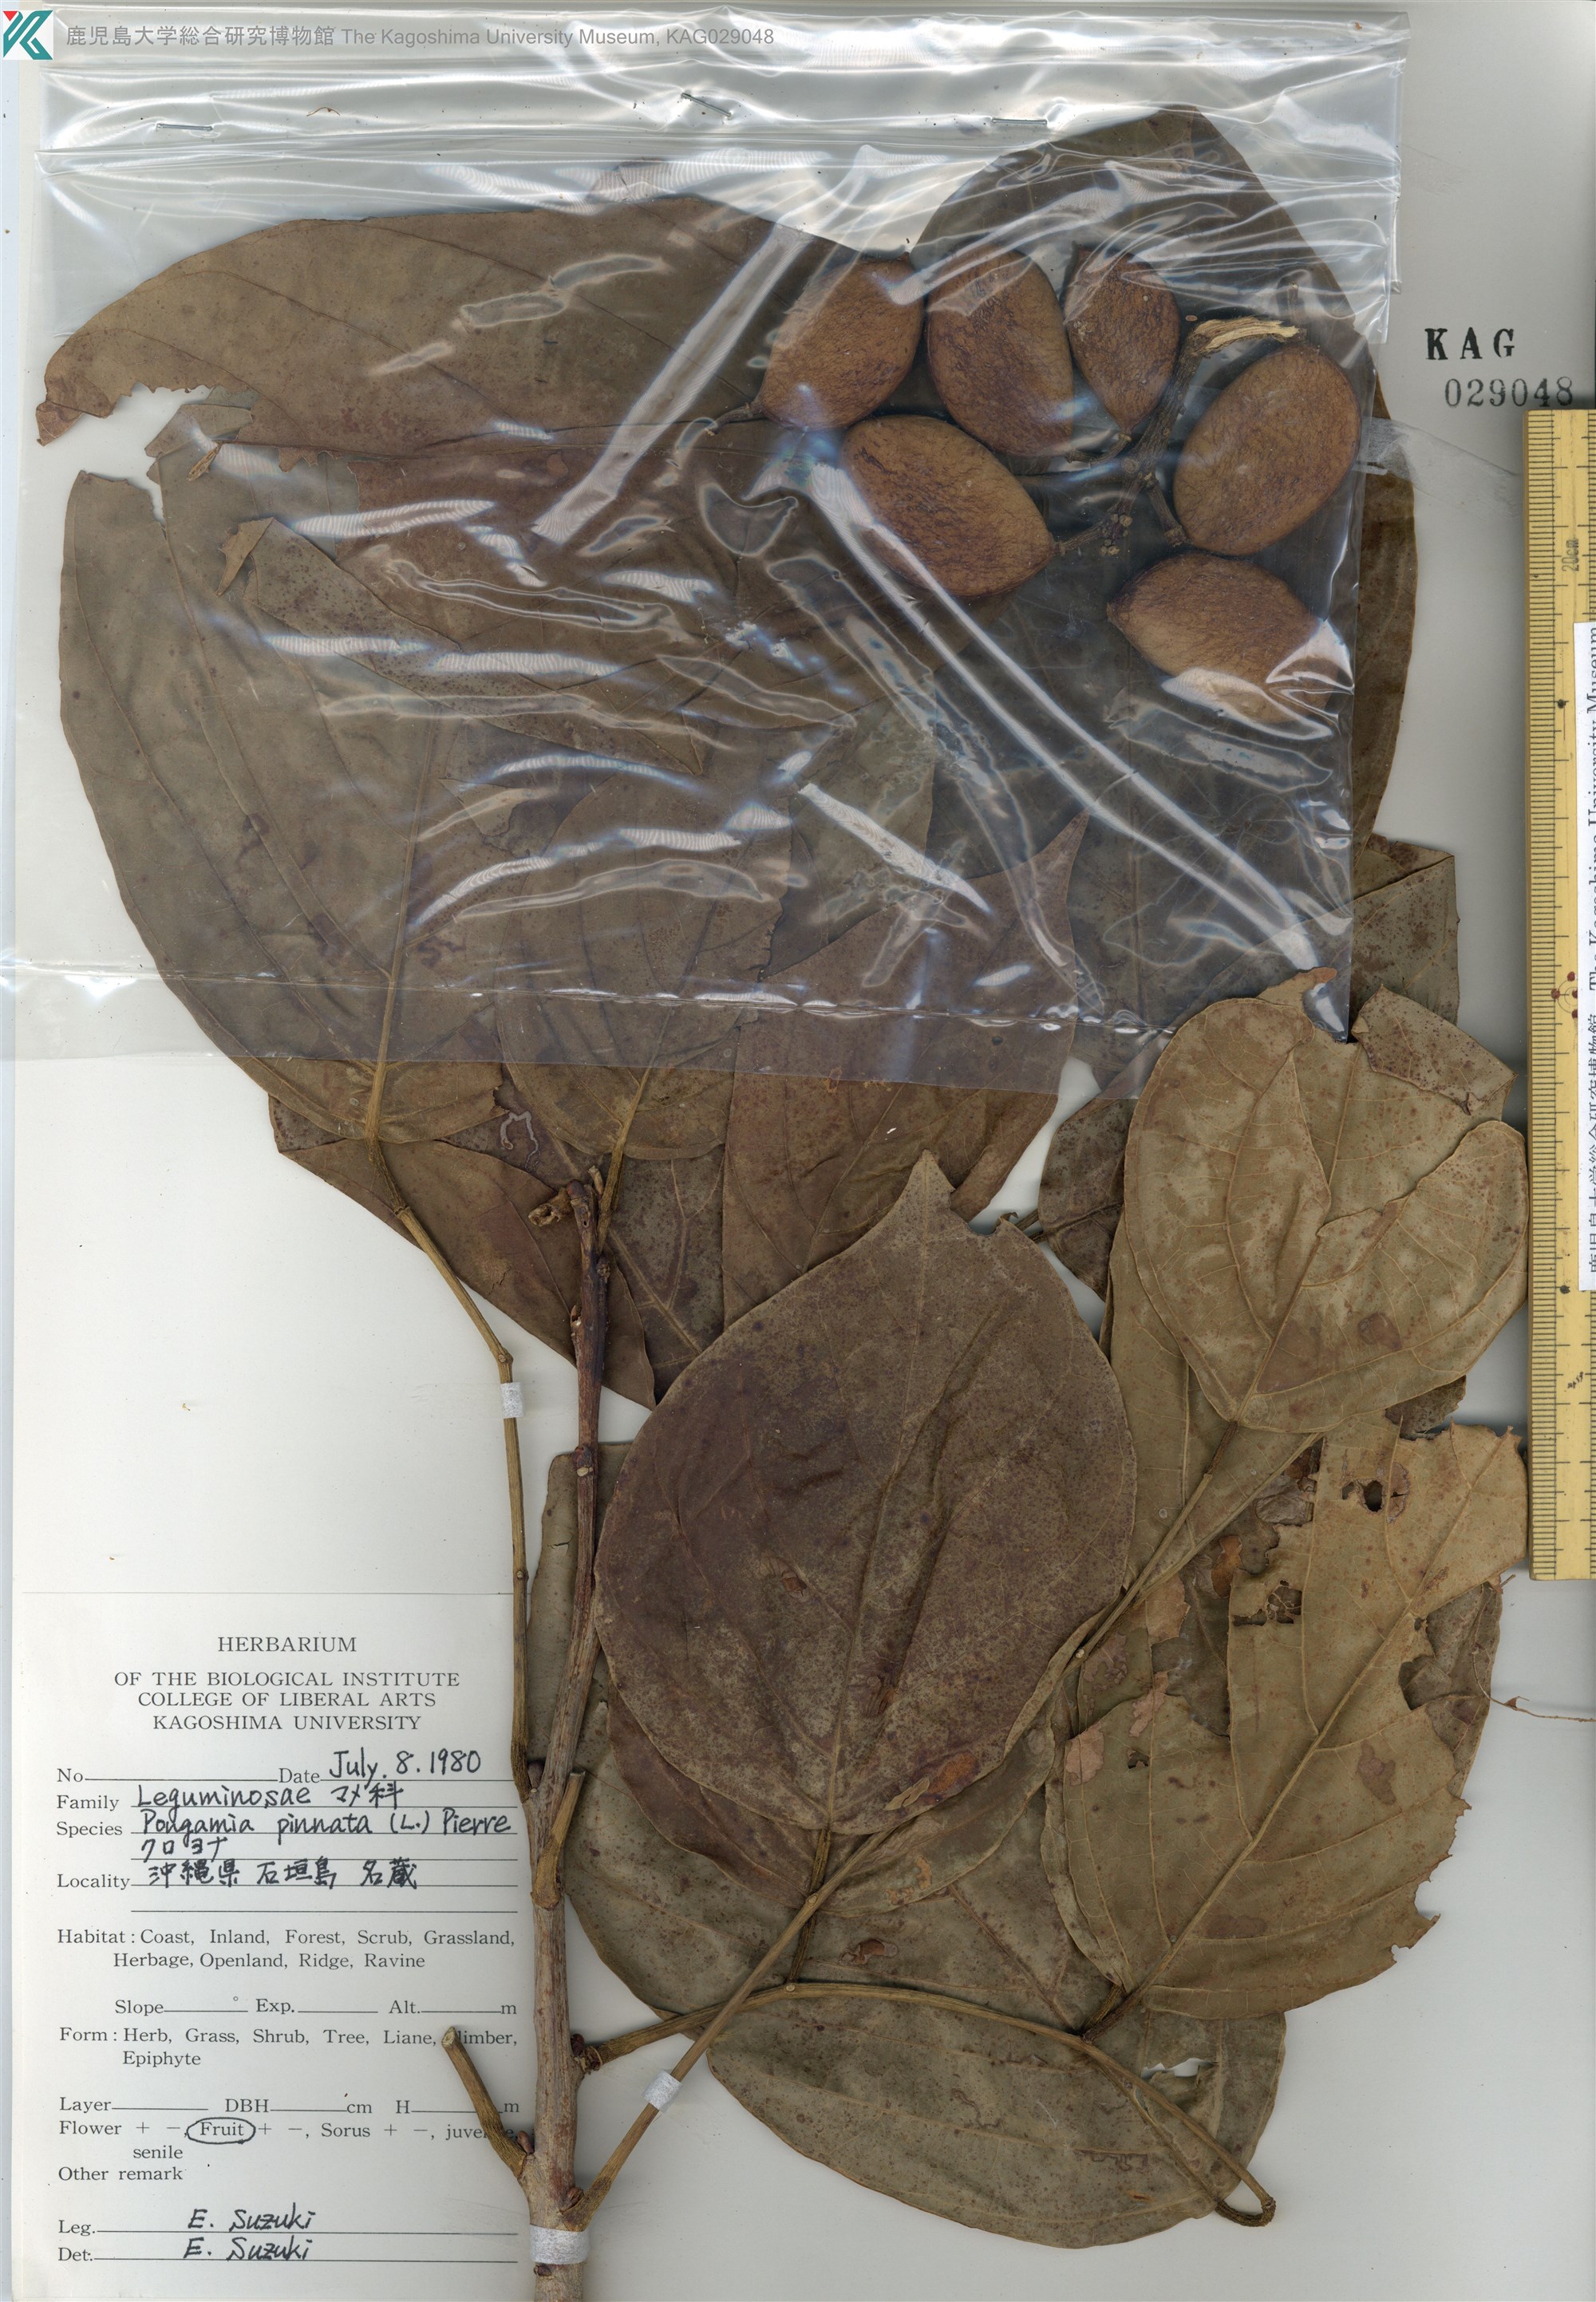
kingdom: Plantae
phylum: Tracheophyta
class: Magnoliopsida
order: Fabales
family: Fabaceae
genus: Pongamia
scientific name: Pongamia pinnata
